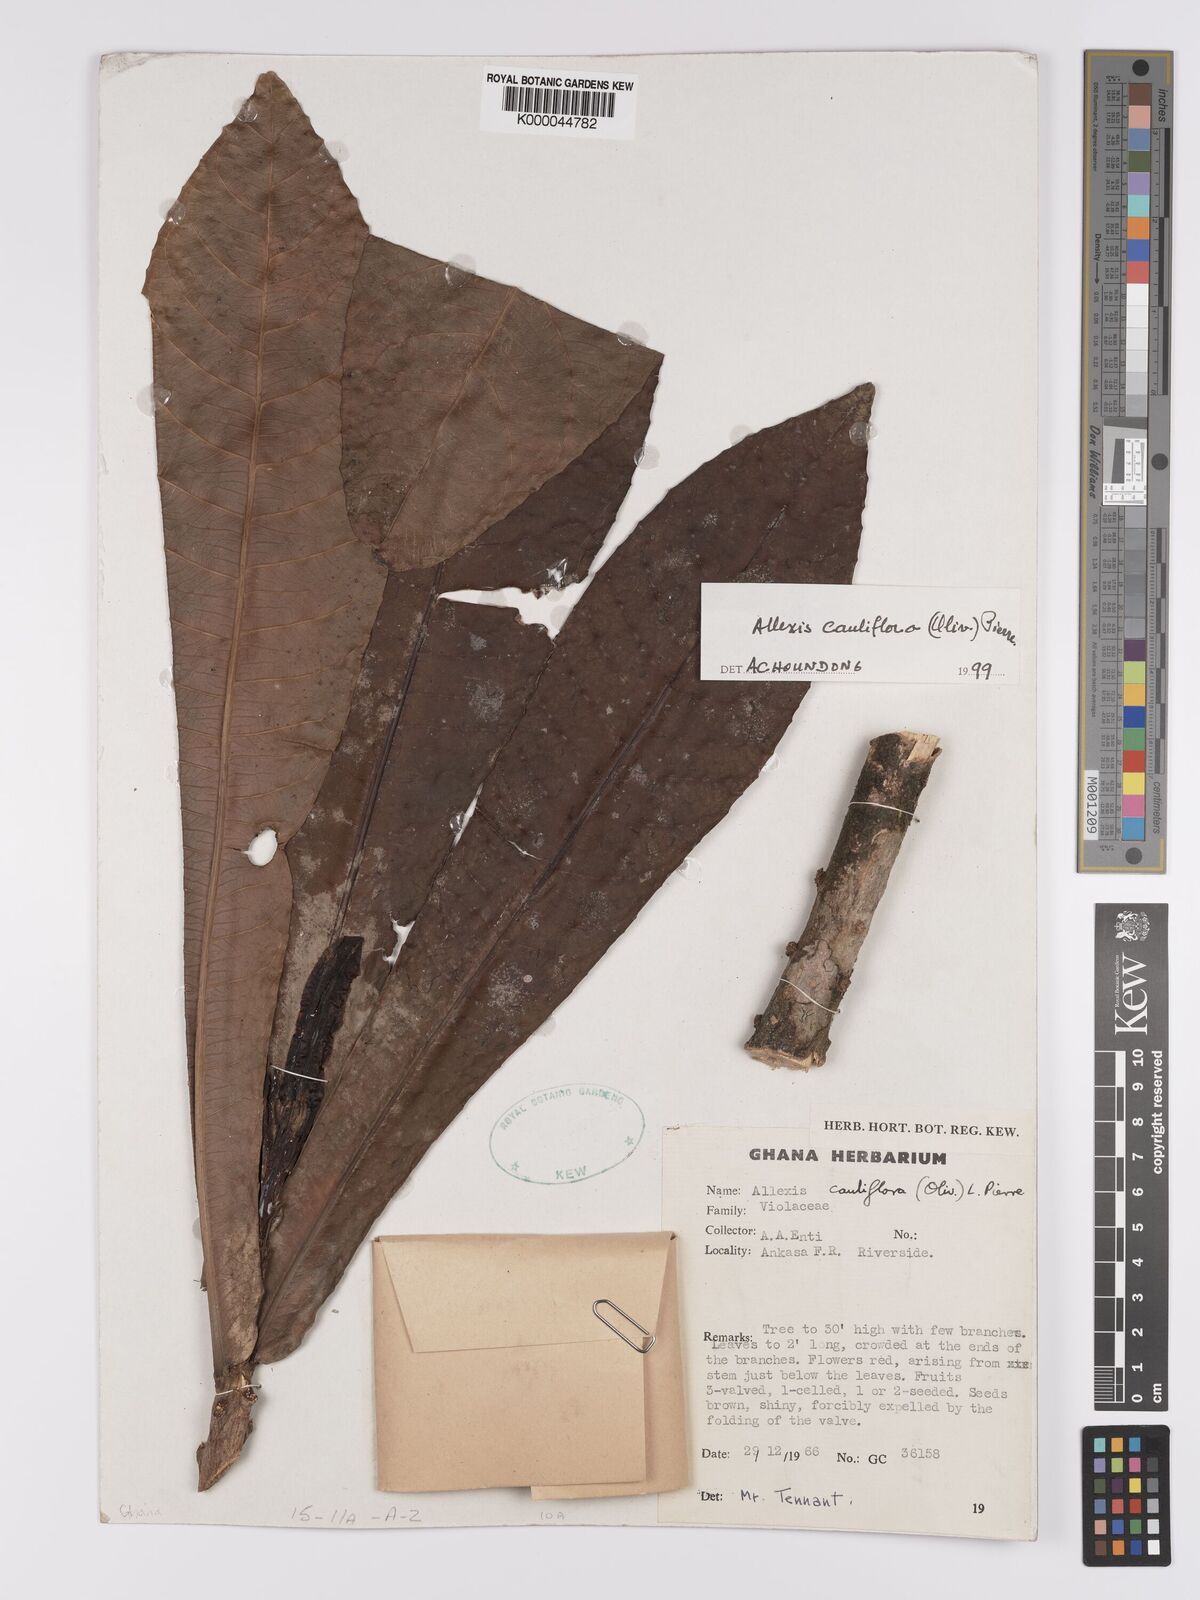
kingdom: Plantae
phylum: Tracheophyta
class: Magnoliopsida
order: Malpighiales
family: Violaceae
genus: Allexis
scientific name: Allexis cauliflora
